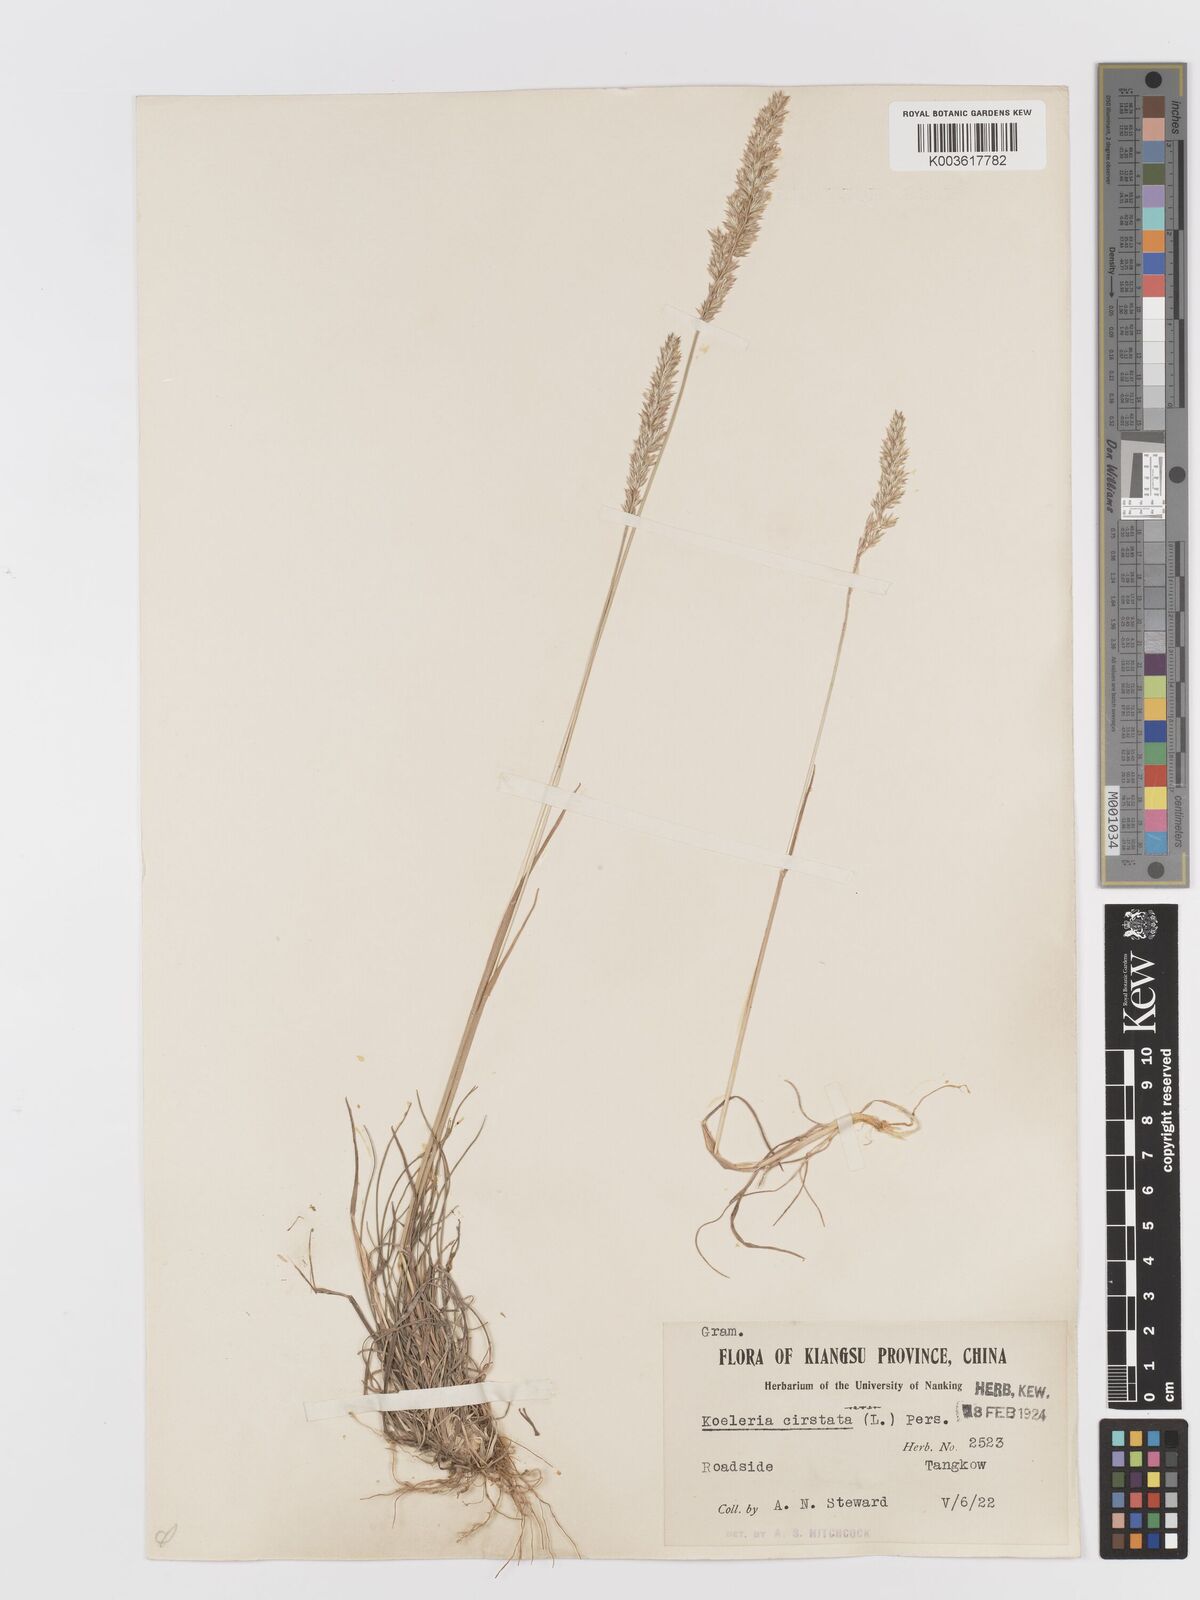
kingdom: Plantae
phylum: Tracheophyta
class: Liliopsida
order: Poales
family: Poaceae
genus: Koeleria
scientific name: Koeleria macrantha
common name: Crested hair-grass
